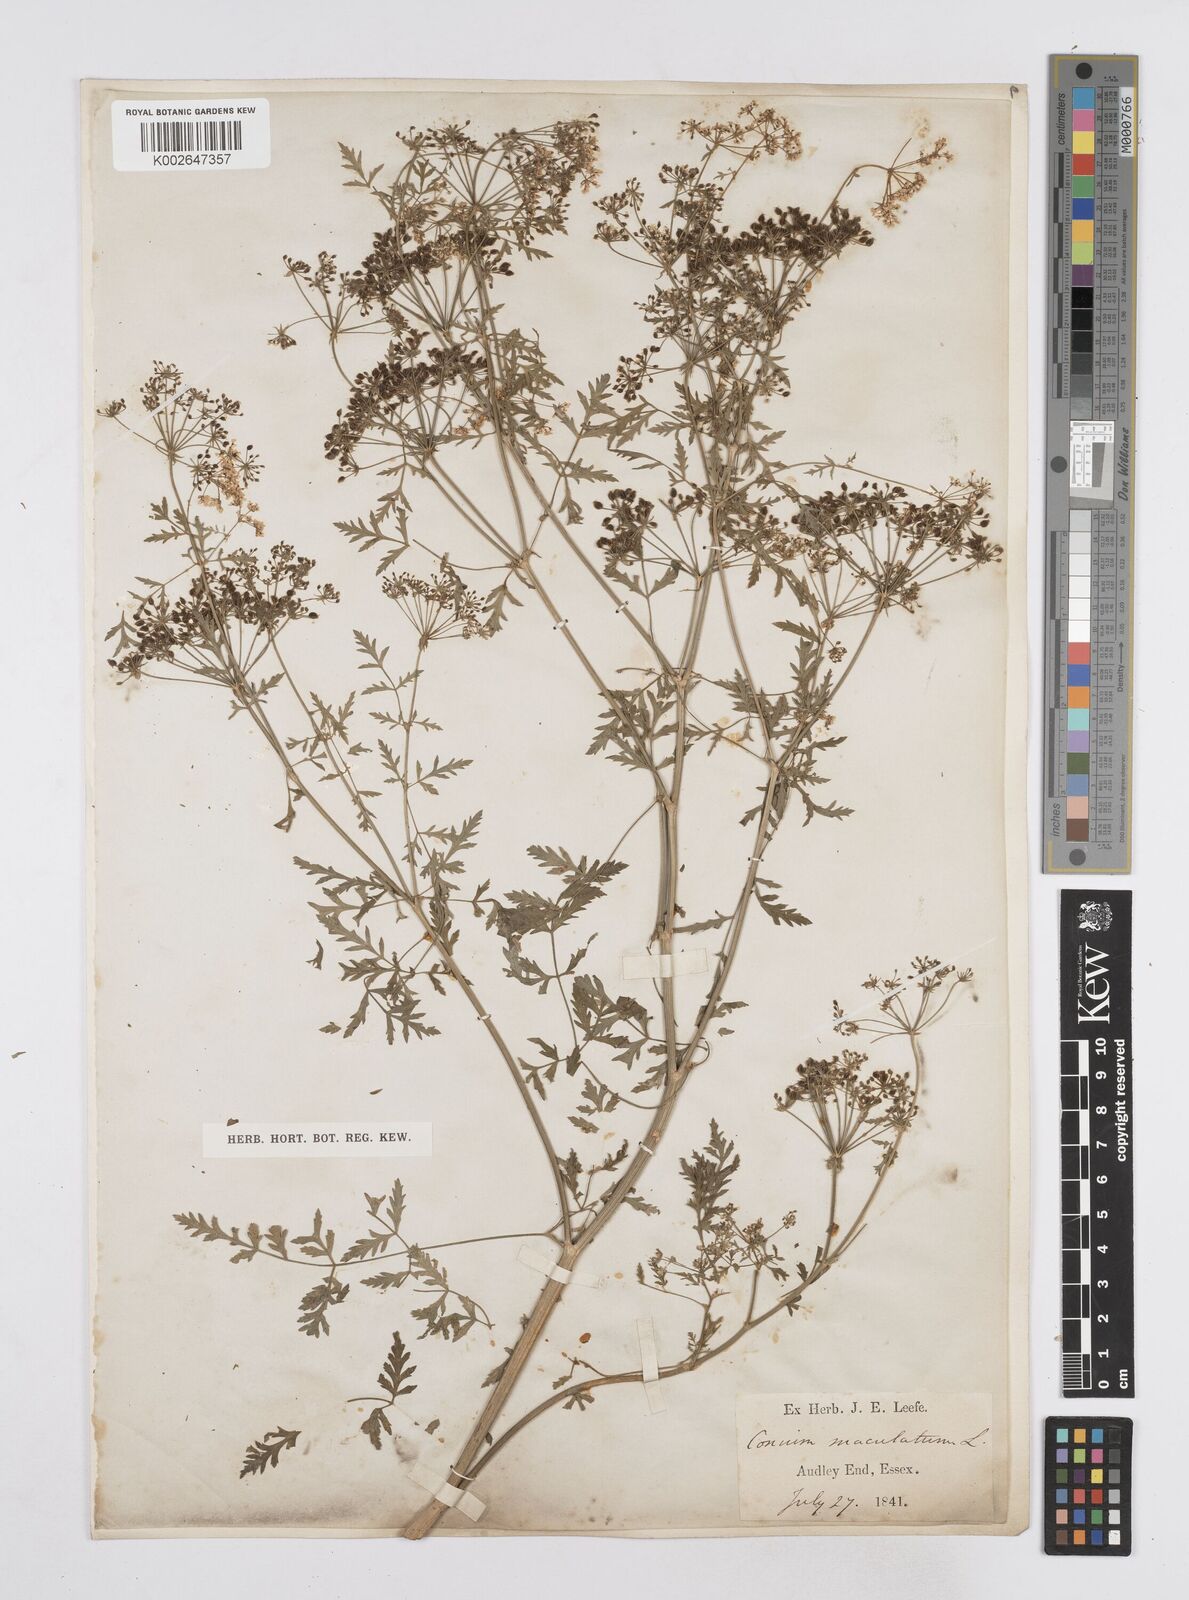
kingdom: Plantae
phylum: Tracheophyta
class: Magnoliopsida
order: Apiales
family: Apiaceae
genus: Conium
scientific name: Conium maculatum
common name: Hemlock
